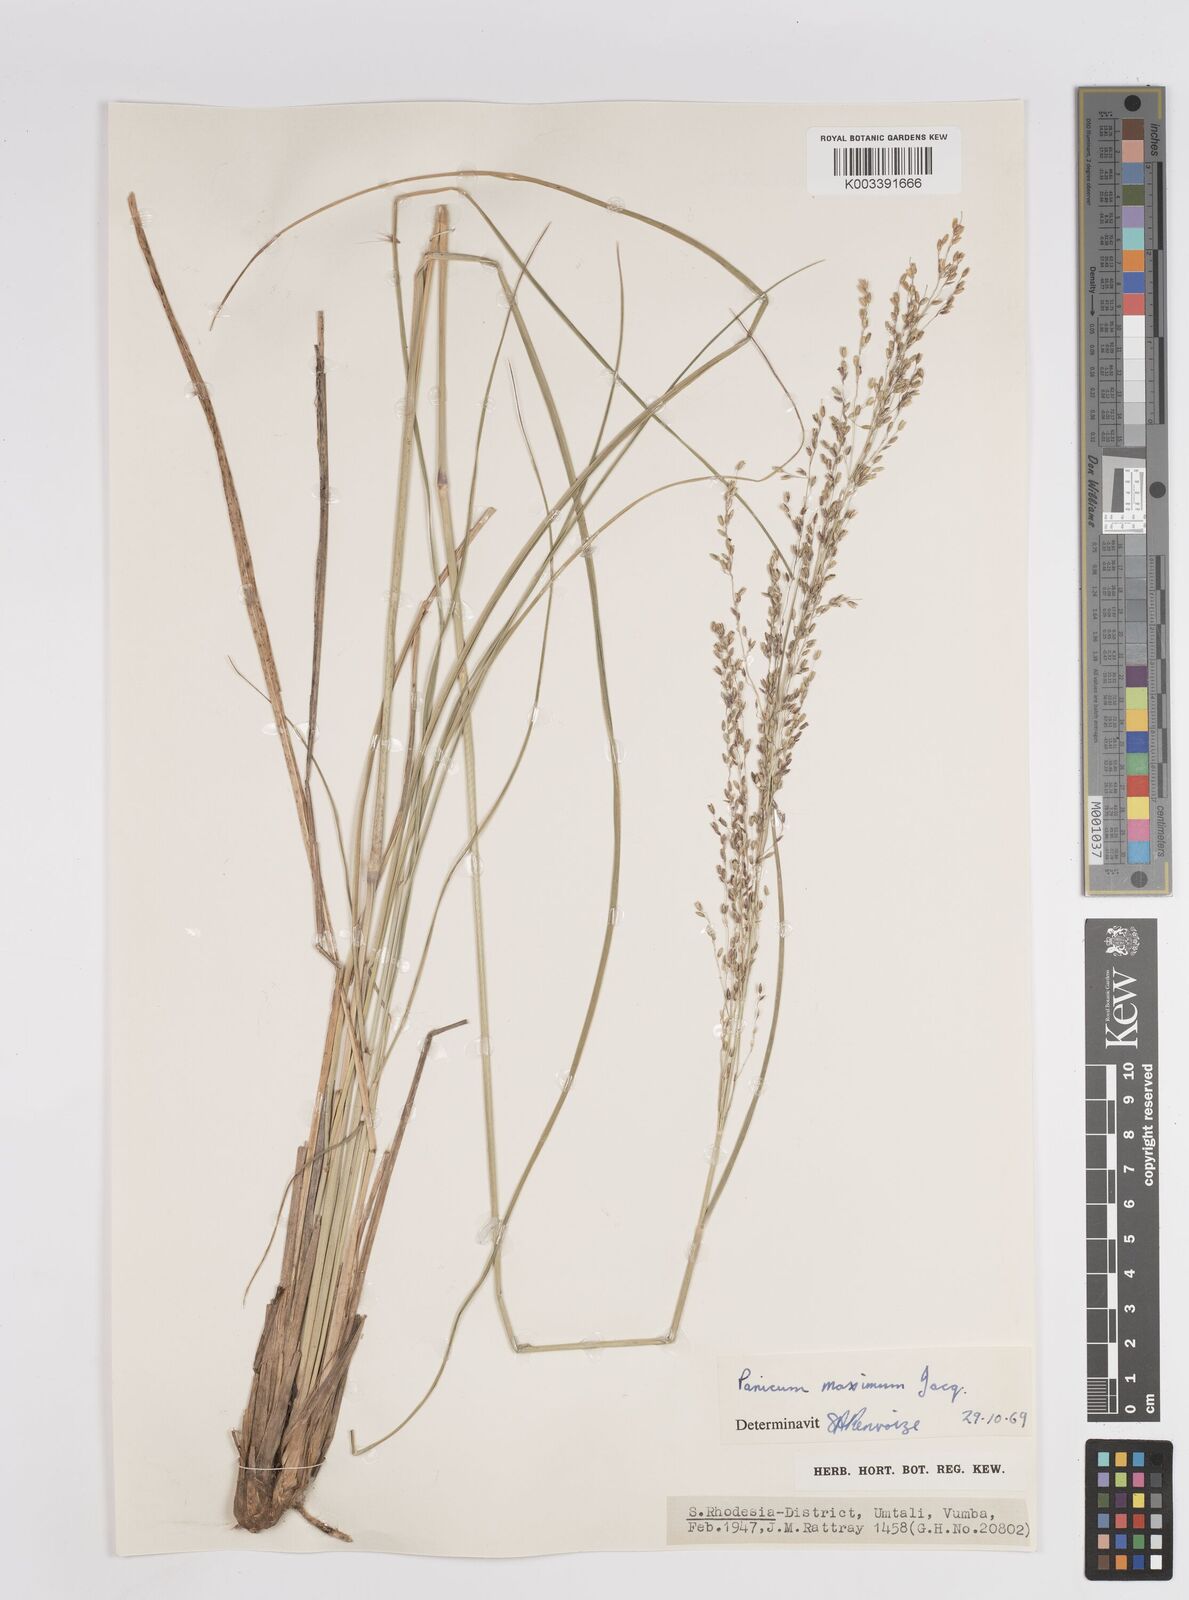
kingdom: Plantae
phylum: Tracheophyta
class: Liliopsida
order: Poales
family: Poaceae
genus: Megathyrsus
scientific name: Megathyrsus maximus
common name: Guineagrass
